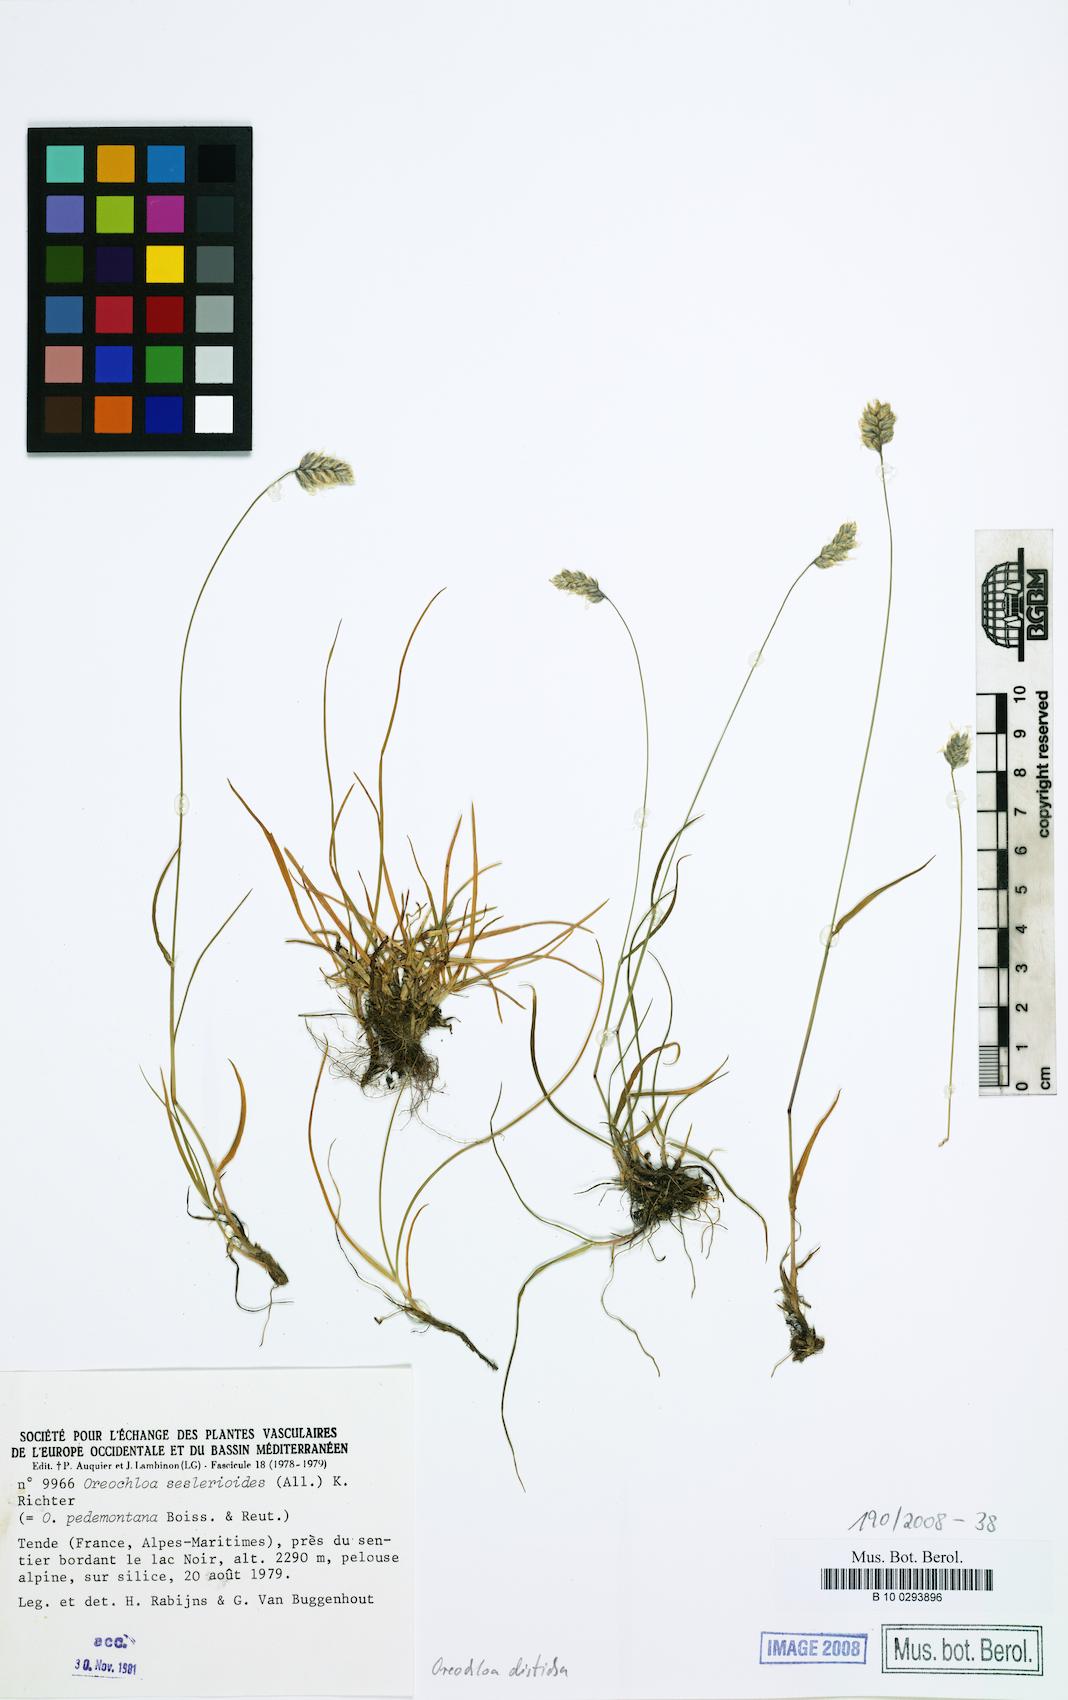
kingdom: Plantae
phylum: Tracheophyta
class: Liliopsida
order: Poales
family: Poaceae
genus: Oreochloa
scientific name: Oreochloa disticha
